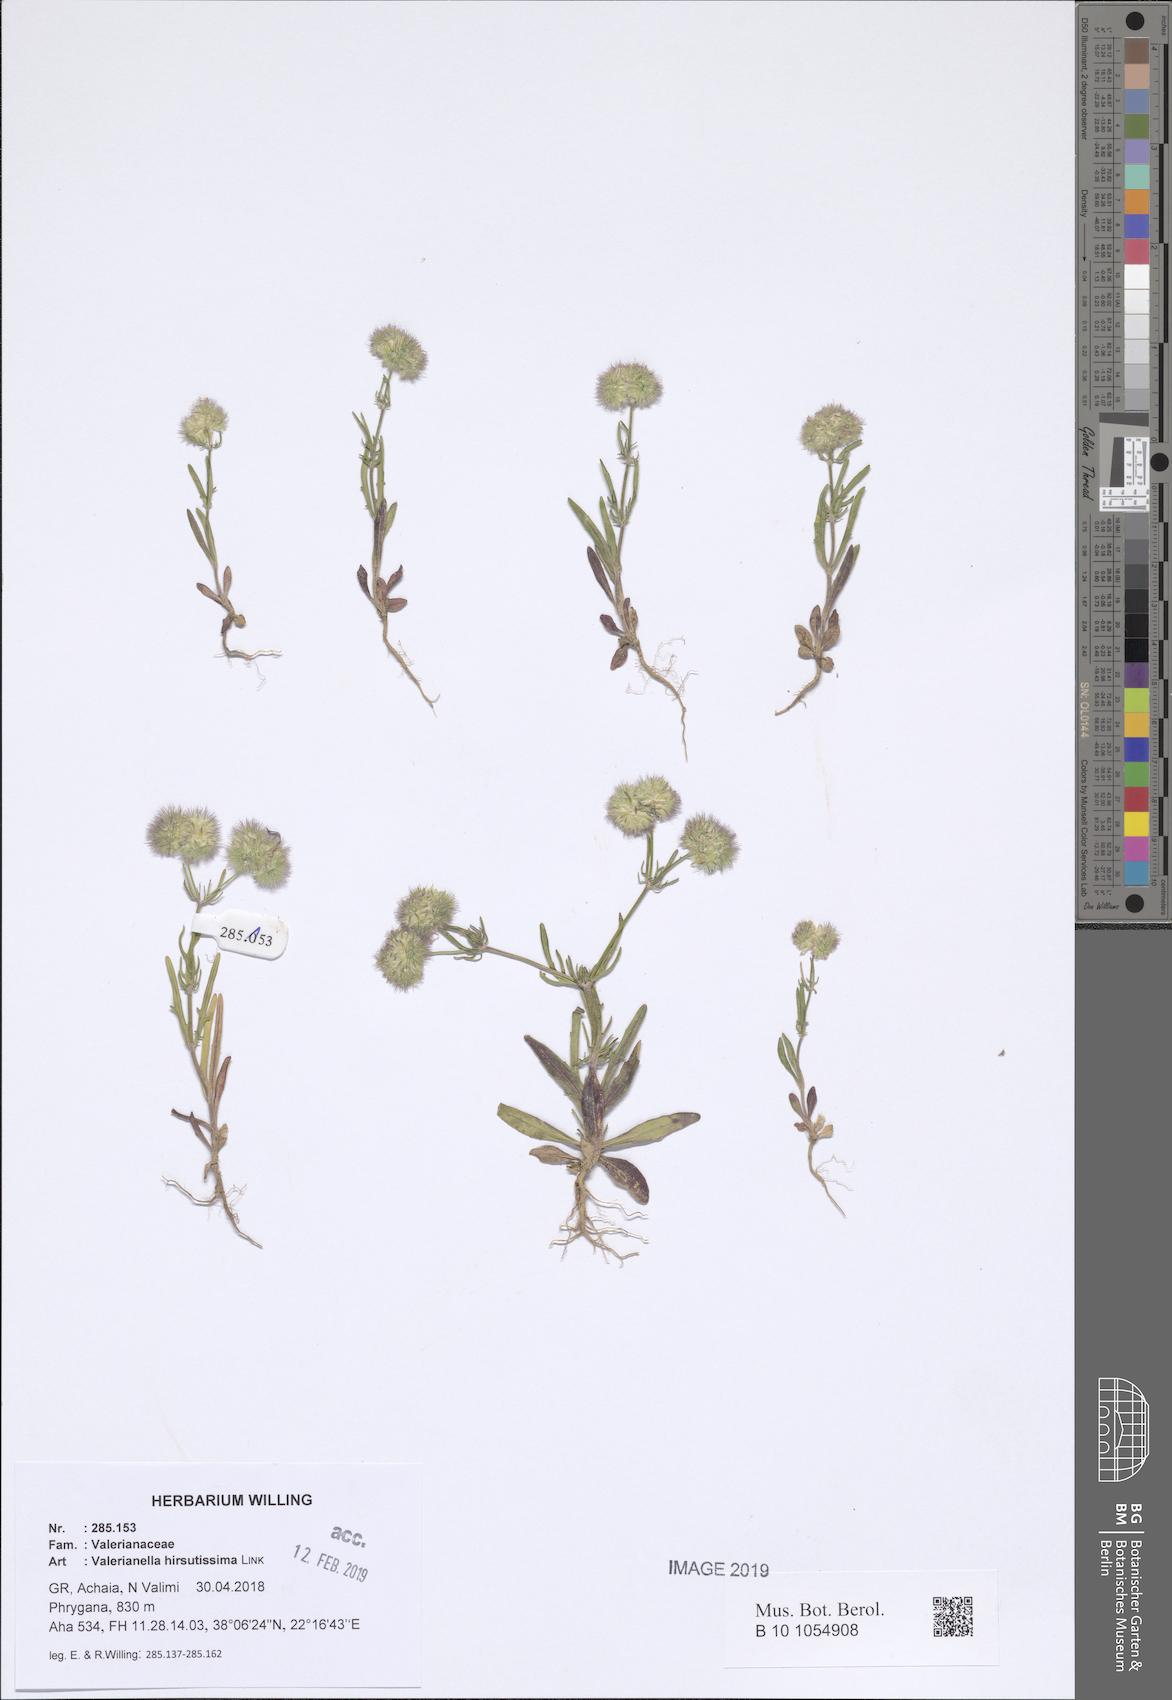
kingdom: Plantae
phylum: Tracheophyta
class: Magnoliopsida
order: Dipsacales
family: Caprifoliaceae
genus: Valerianella
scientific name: Valerianella hirsutissima
